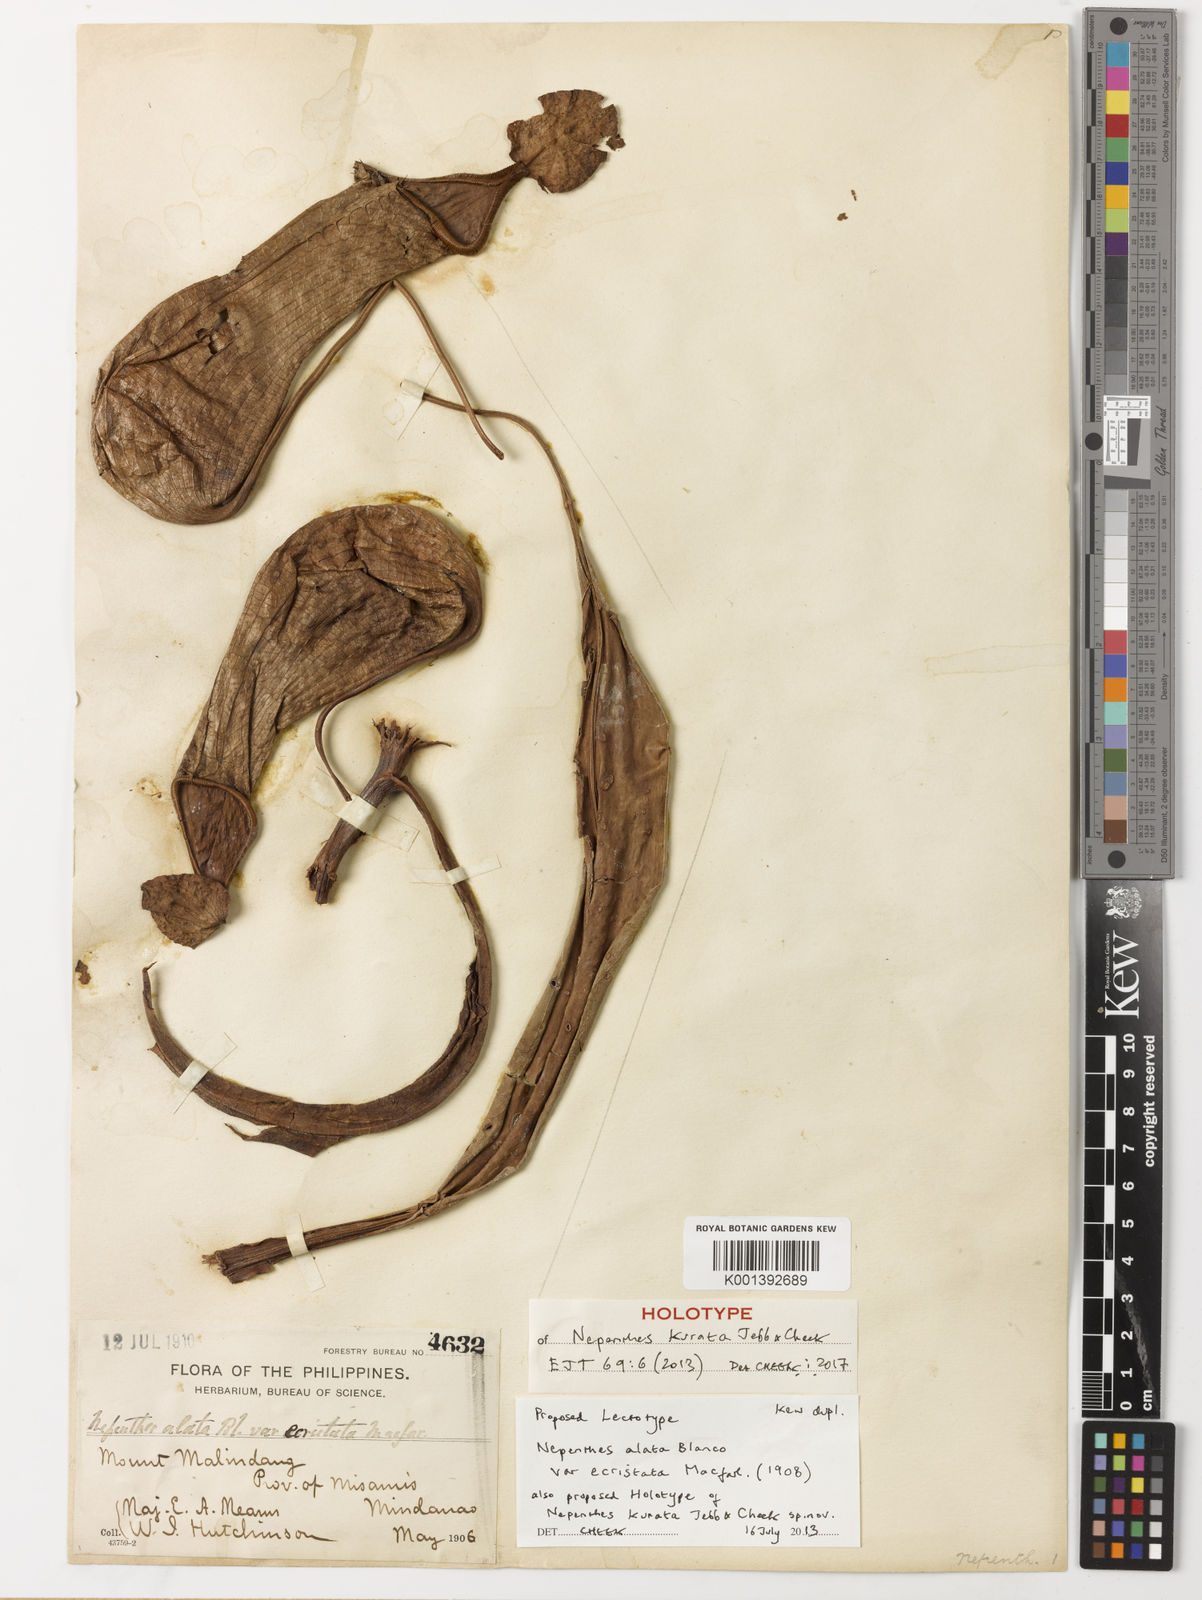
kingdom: Plantae
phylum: Tracheophyta
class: Magnoliopsida
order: Caryophyllales
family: Nepenthaceae
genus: Nepenthes
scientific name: Nepenthes kurata
